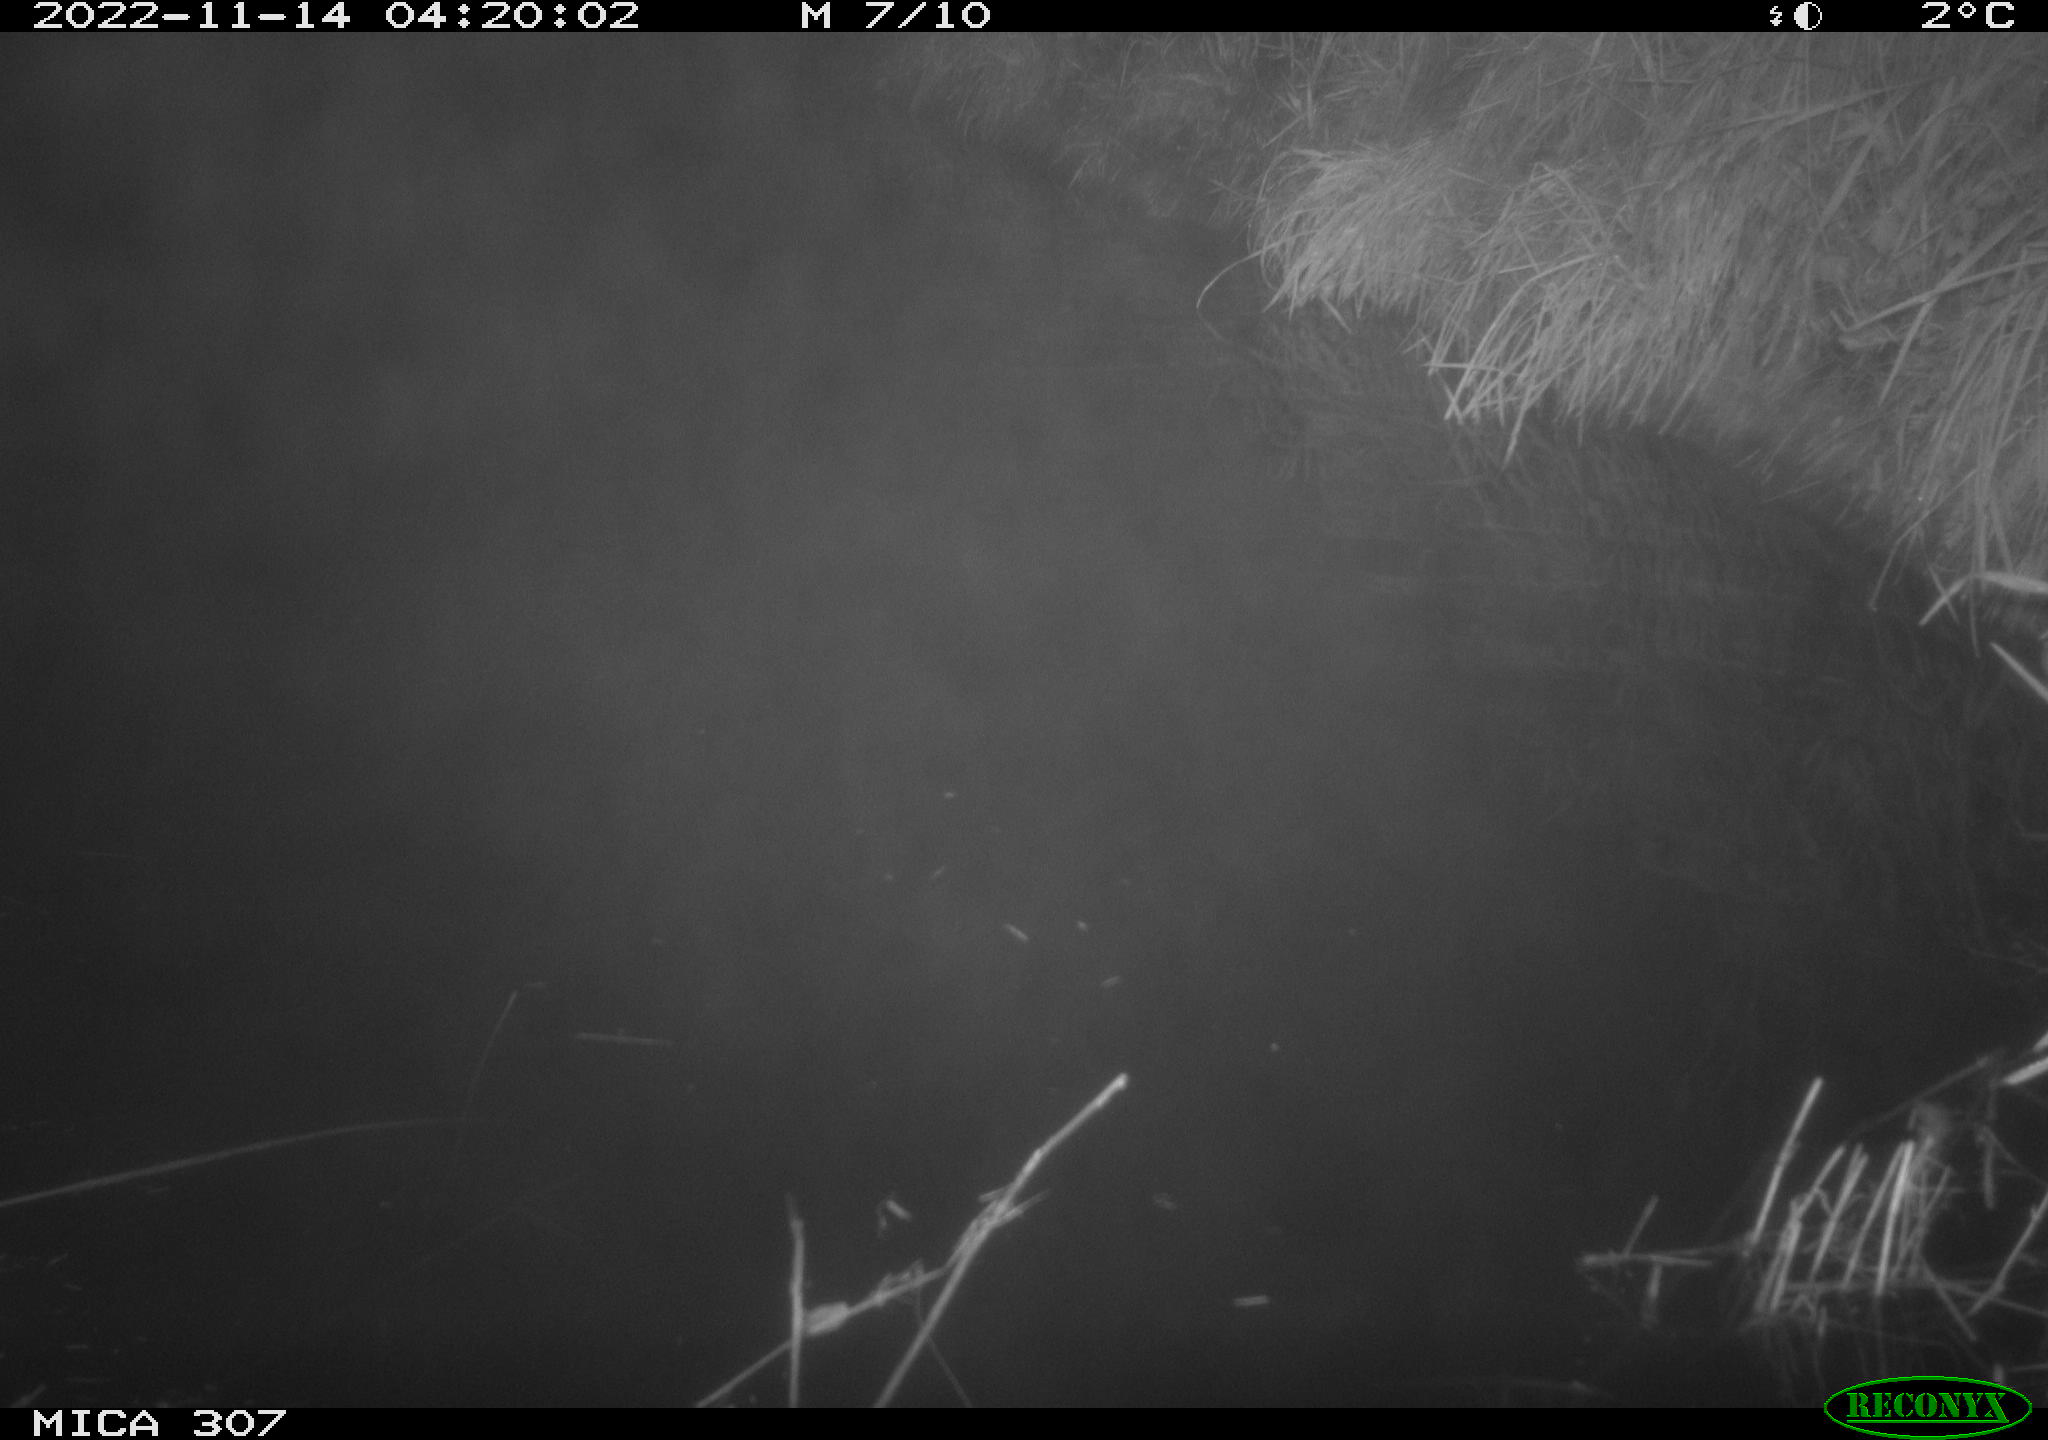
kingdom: Animalia
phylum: Chordata
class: Mammalia
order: Rodentia
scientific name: Rodentia
